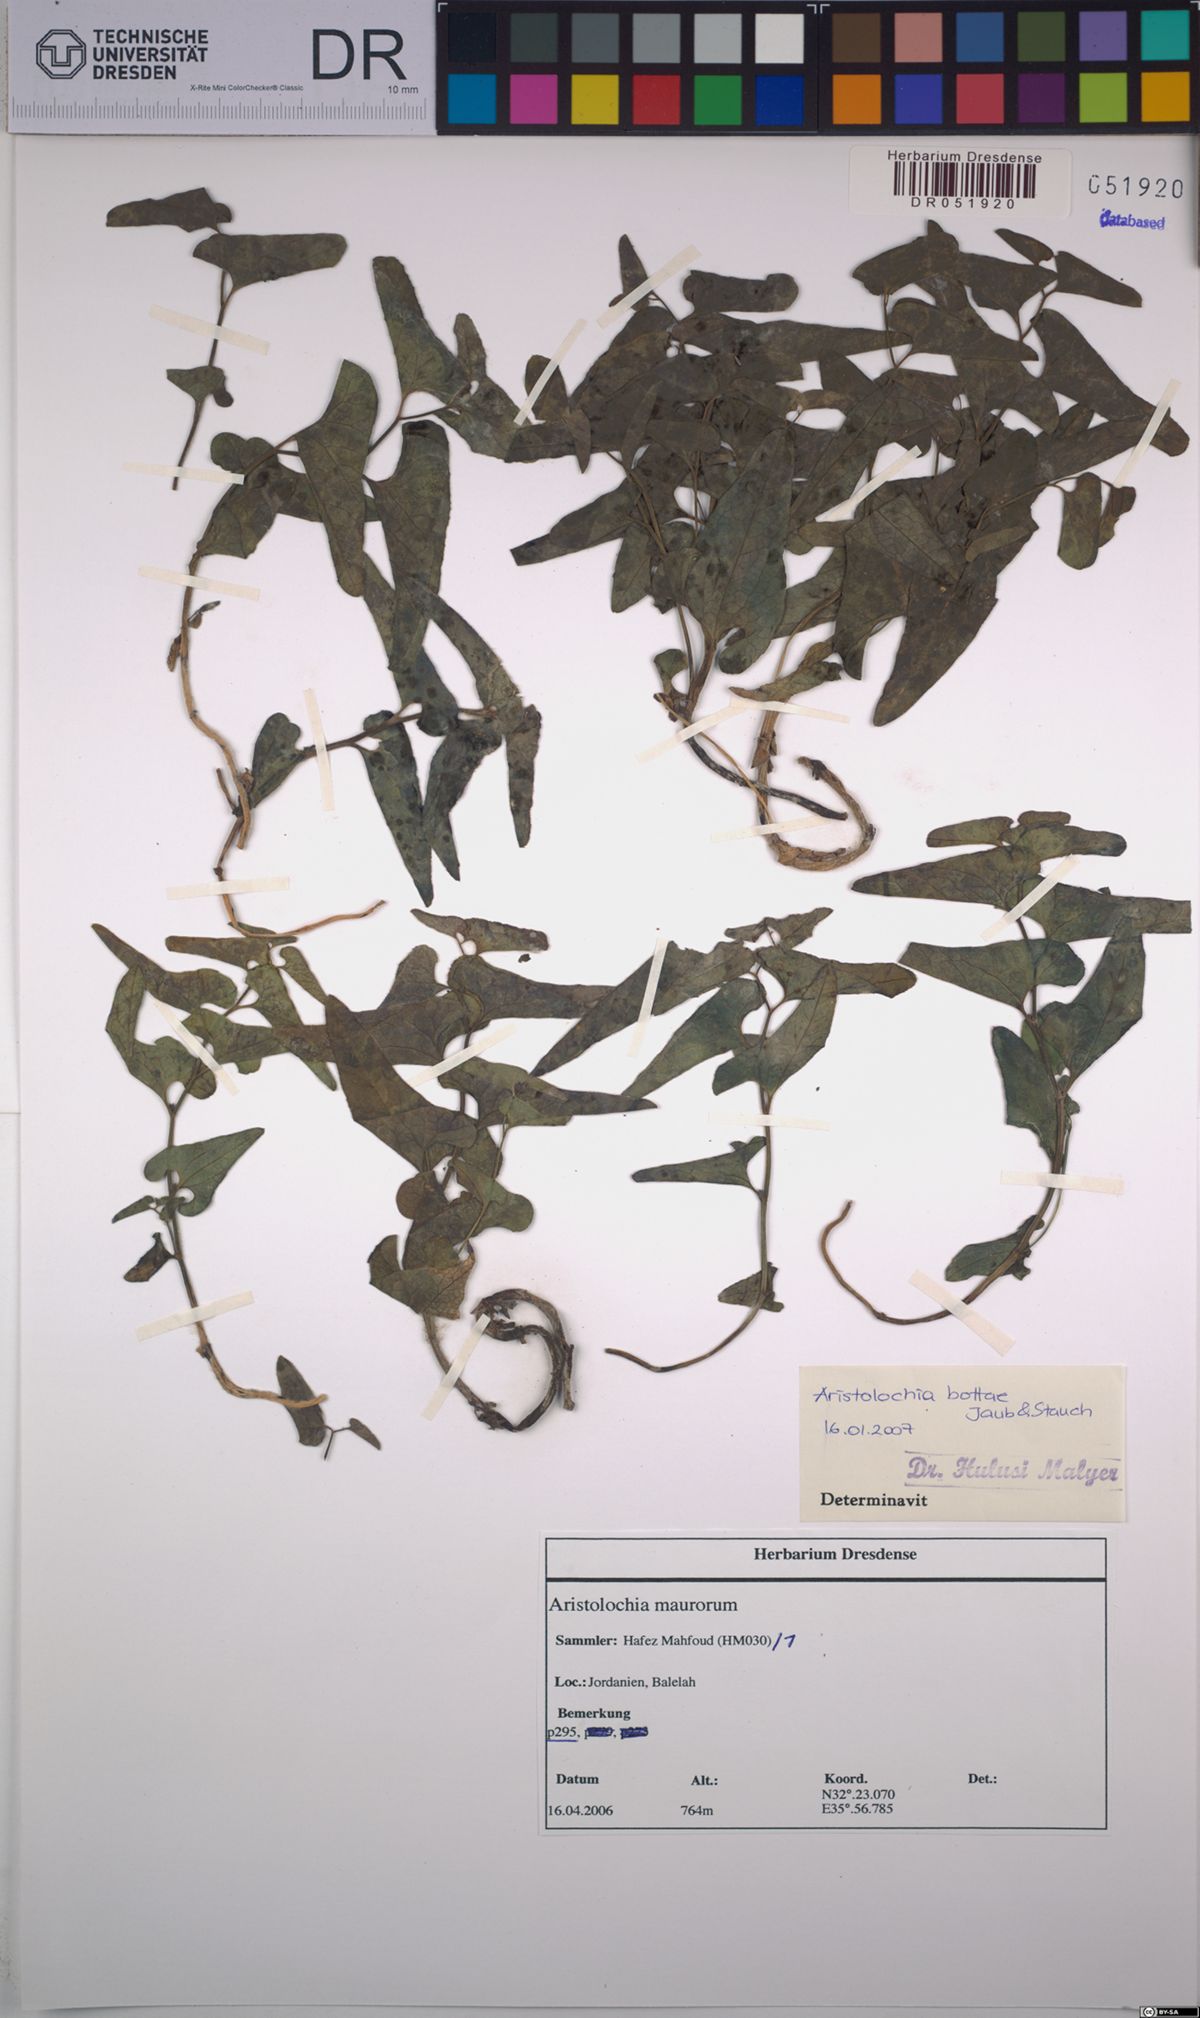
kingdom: Plantae
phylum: Tracheophyta
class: Magnoliopsida
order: Piperales
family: Aristolochiaceae
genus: Aristolochia
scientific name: Aristolochia bottae
